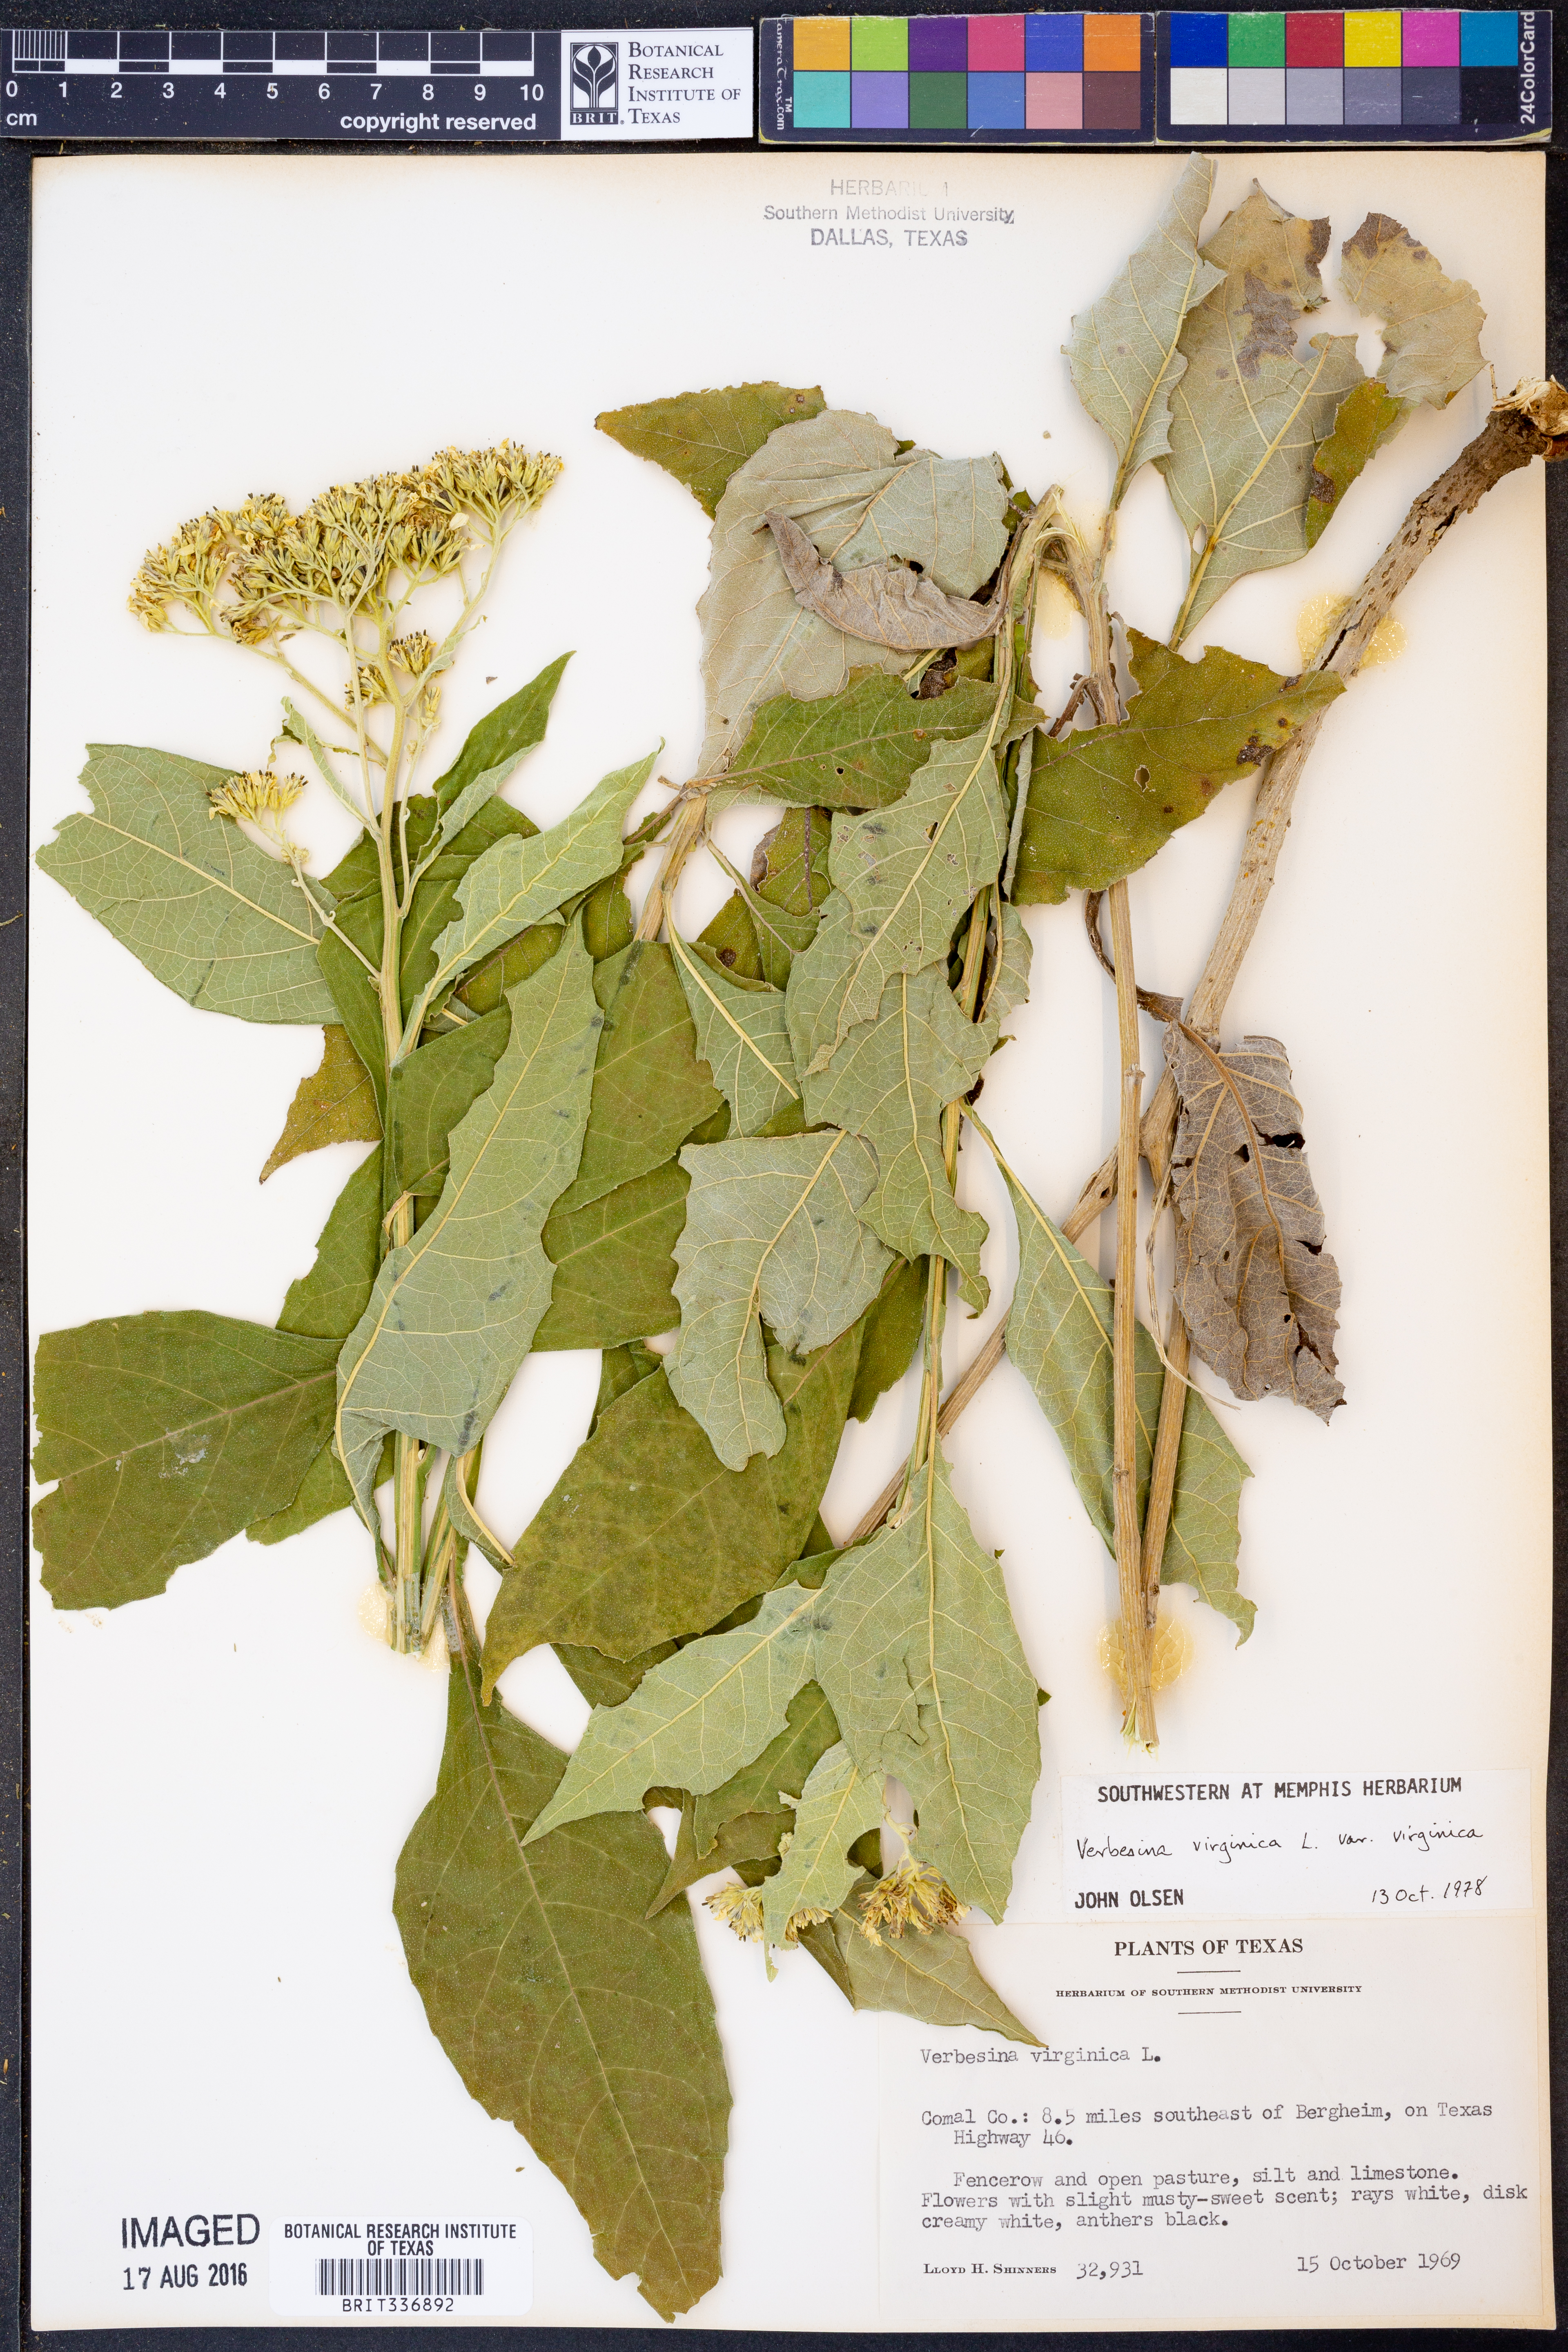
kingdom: Plantae
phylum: Tracheophyta
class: Magnoliopsida
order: Asterales
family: Asteraceae
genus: Verbesina
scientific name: Verbesina virginica
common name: Frostweed
